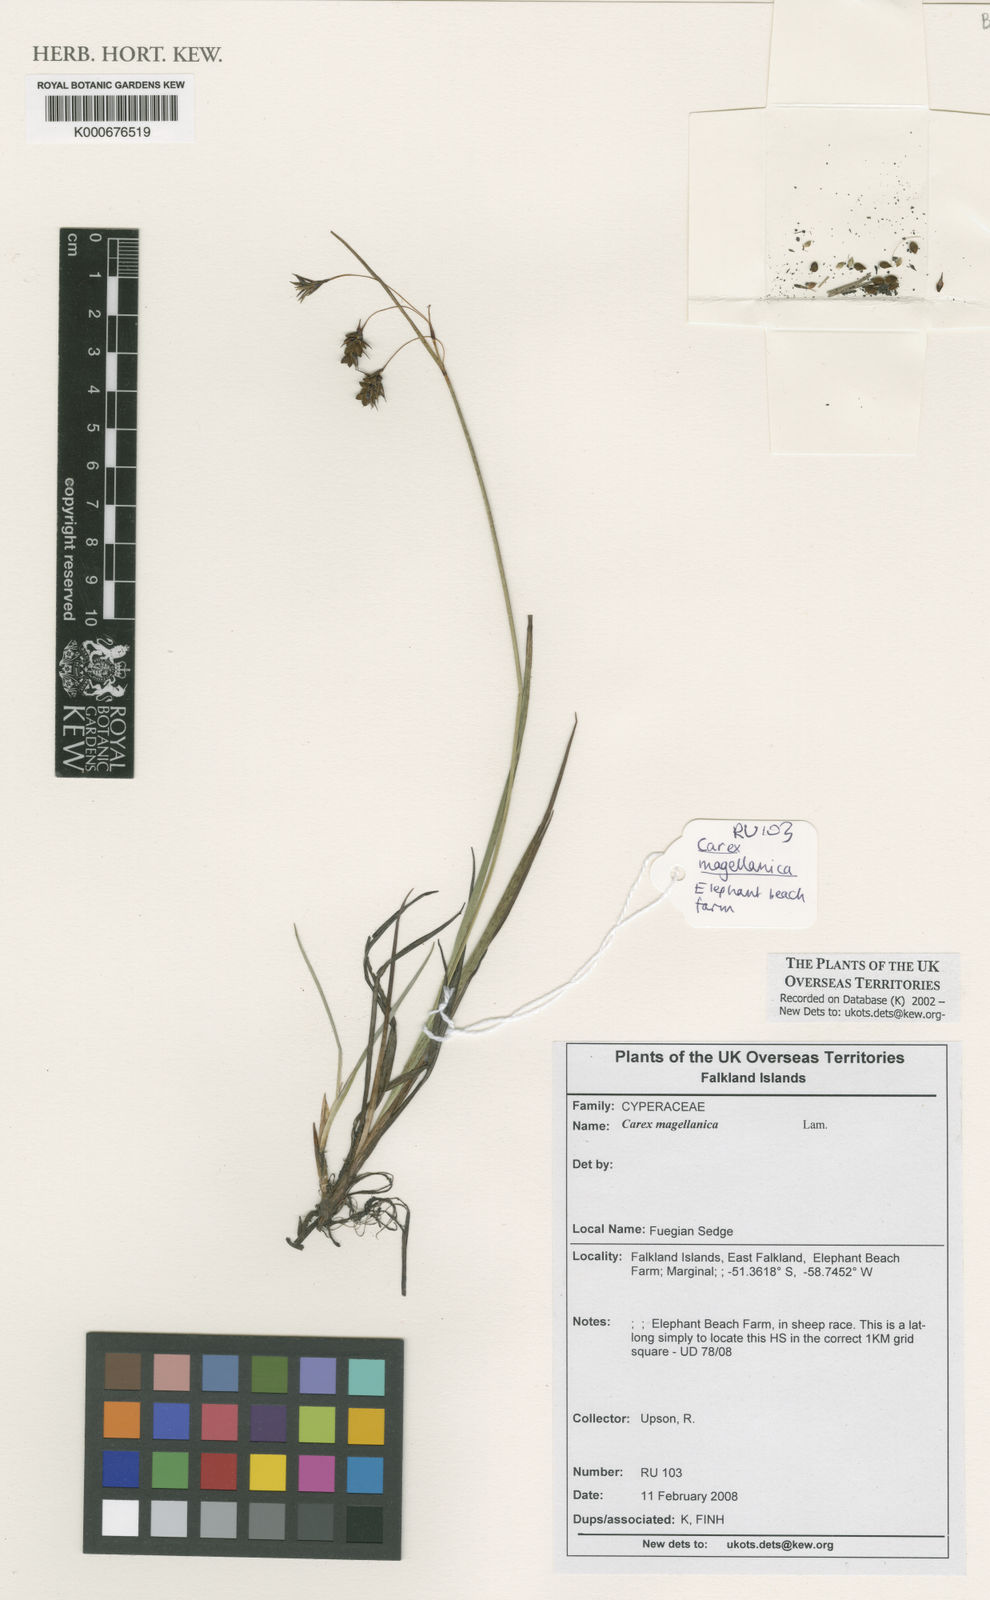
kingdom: Plantae
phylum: Tracheophyta
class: Liliopsida
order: Poales
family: Cyperaceae
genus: Carex
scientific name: Carex magellanica
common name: Bog sedge
